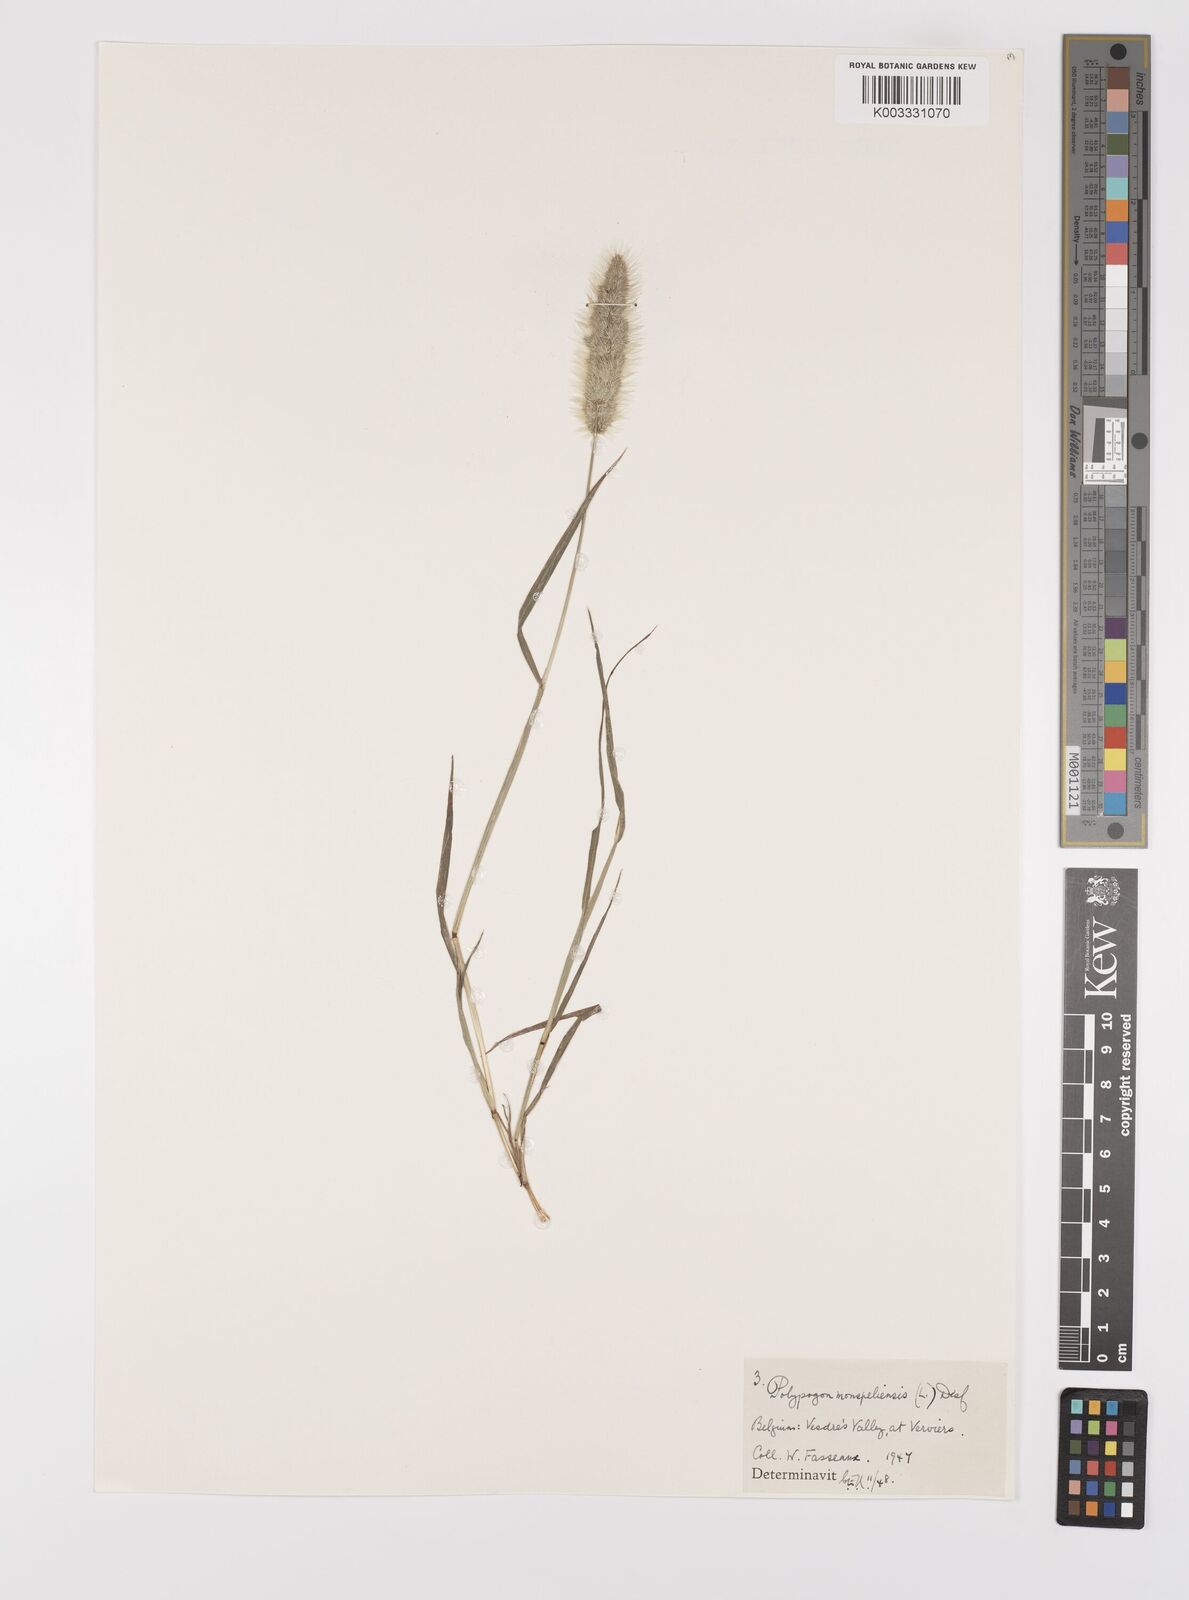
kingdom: Plantae
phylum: Tracheophyta
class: Liliopsida
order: Poales
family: Poaceae
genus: Polypogon
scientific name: Polypogon monspeliensis
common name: Annual rabbitsfoot grass
